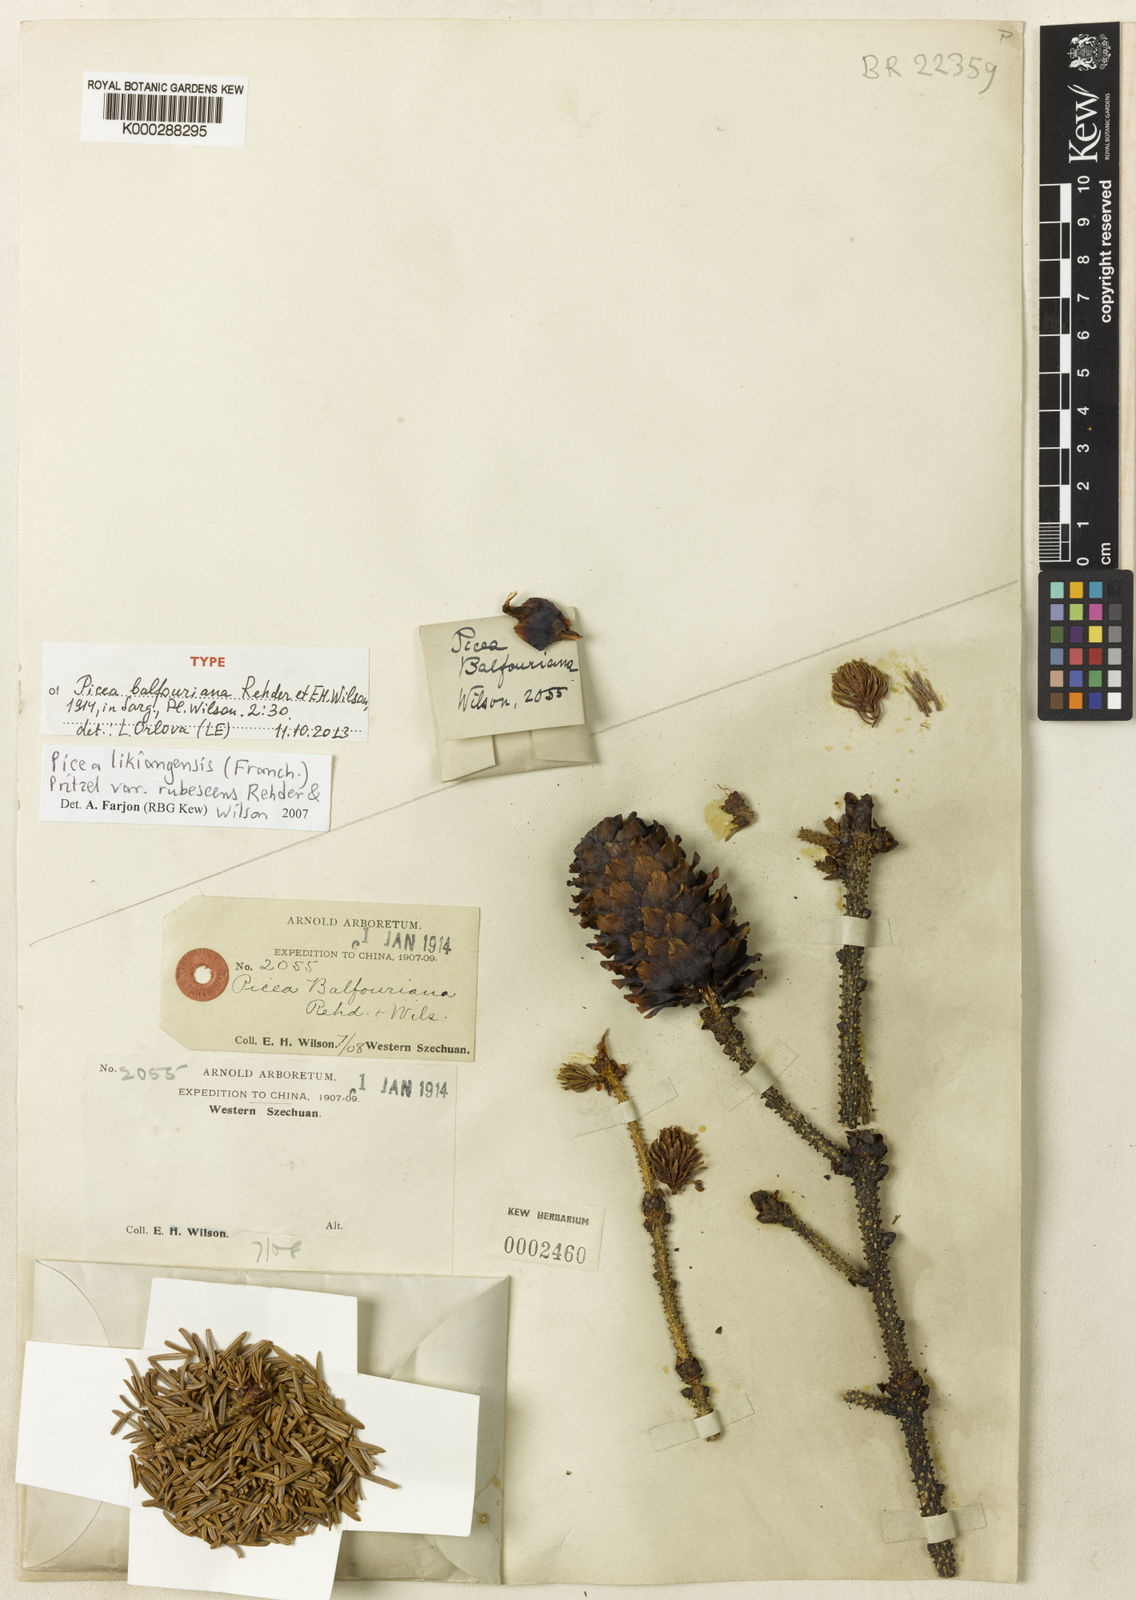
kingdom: Plantae
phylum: Tracheophyta
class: Pinopsida
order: Pinales
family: Pinaceae
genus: Picea
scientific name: Picea likiangensis
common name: Likiang spruce
